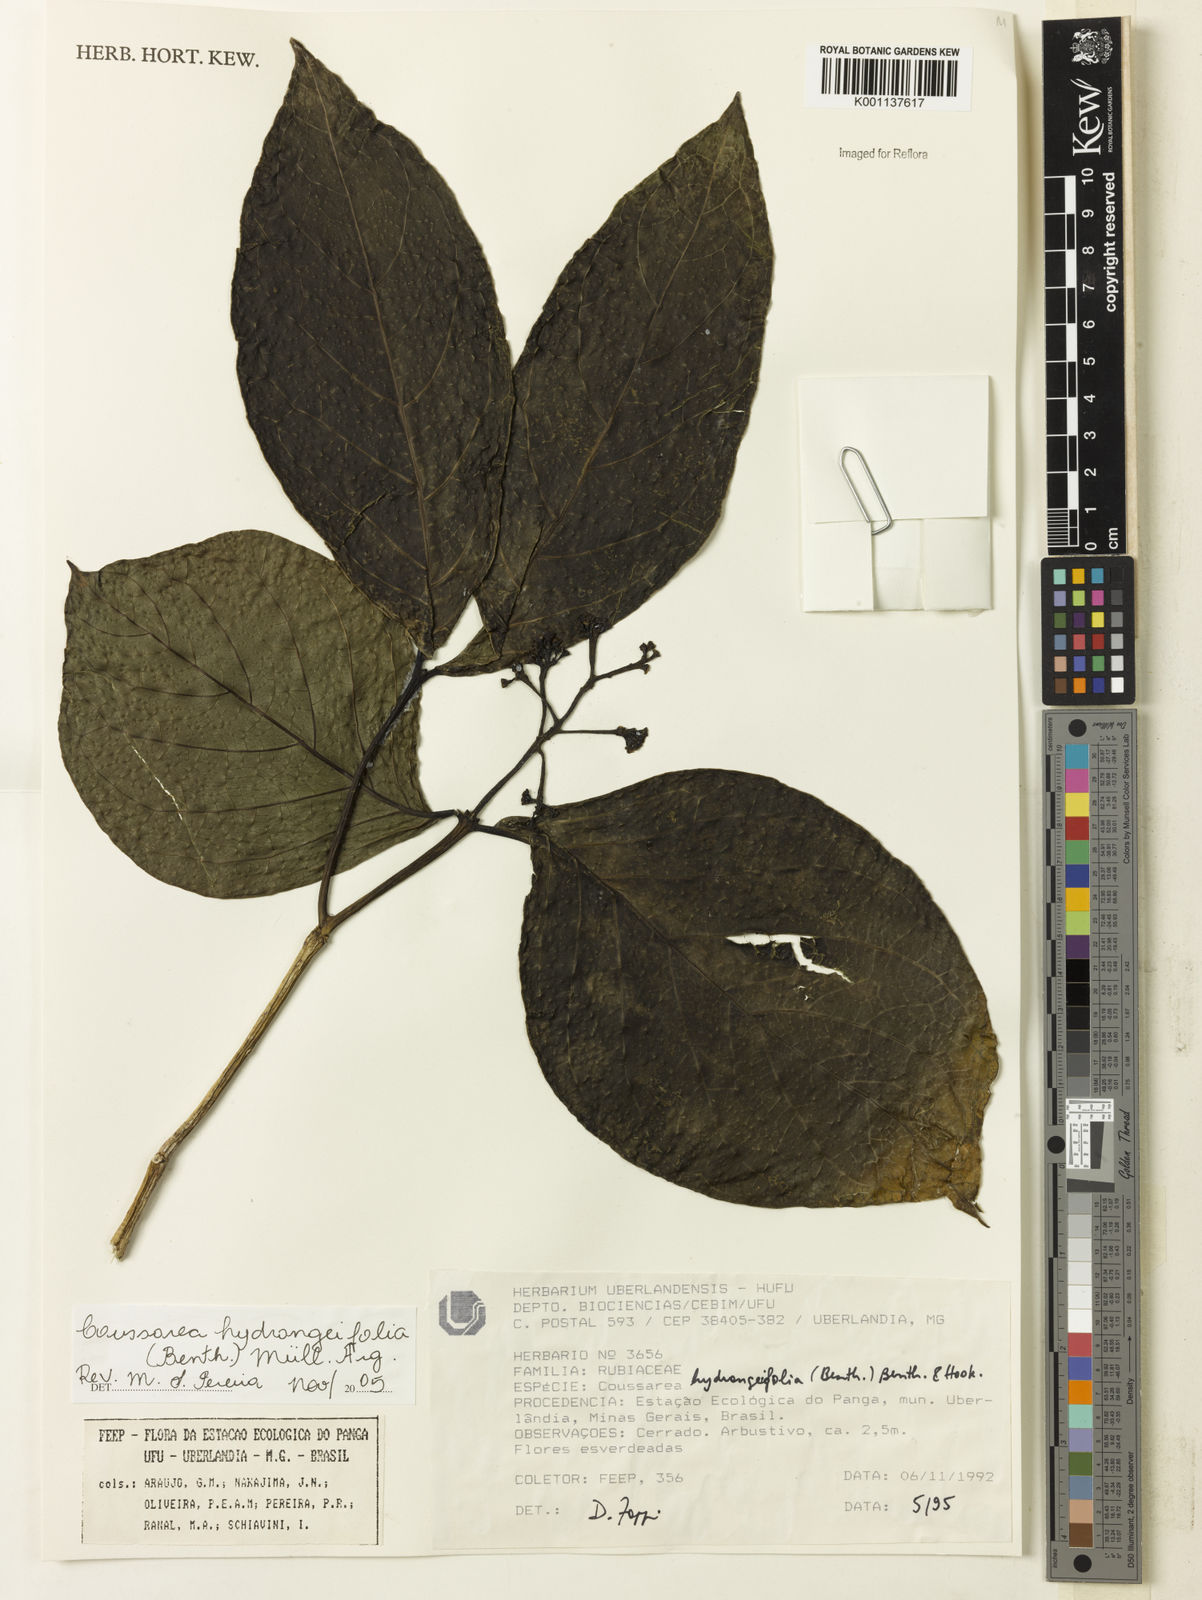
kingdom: Plantae
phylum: Tracheophyta
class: Magnoliopsida
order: Gentianales
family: Rubiaceae
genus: Coussarea
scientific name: Coussarea
